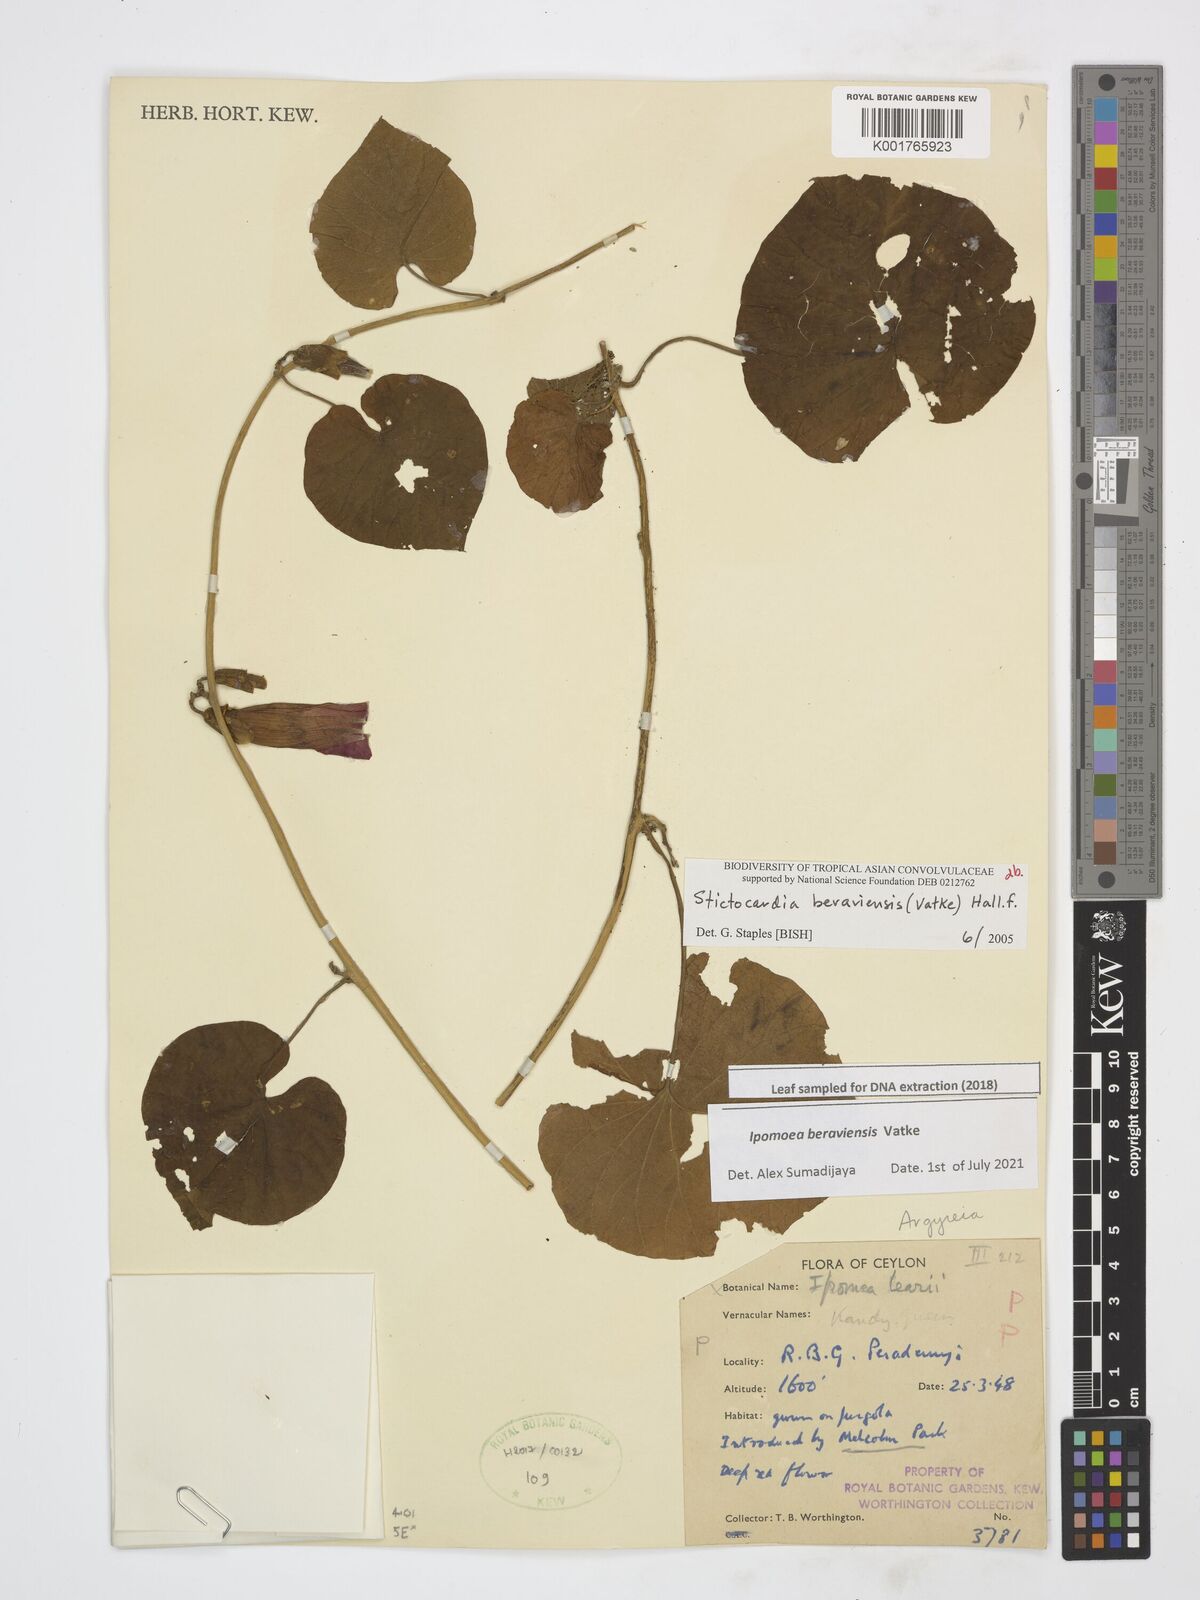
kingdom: Plantae
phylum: Tracheophyta
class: Magnoliopsida
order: Solanales
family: Convolvulaceae
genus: Stictocardia
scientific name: Stictocardia beraviensis
